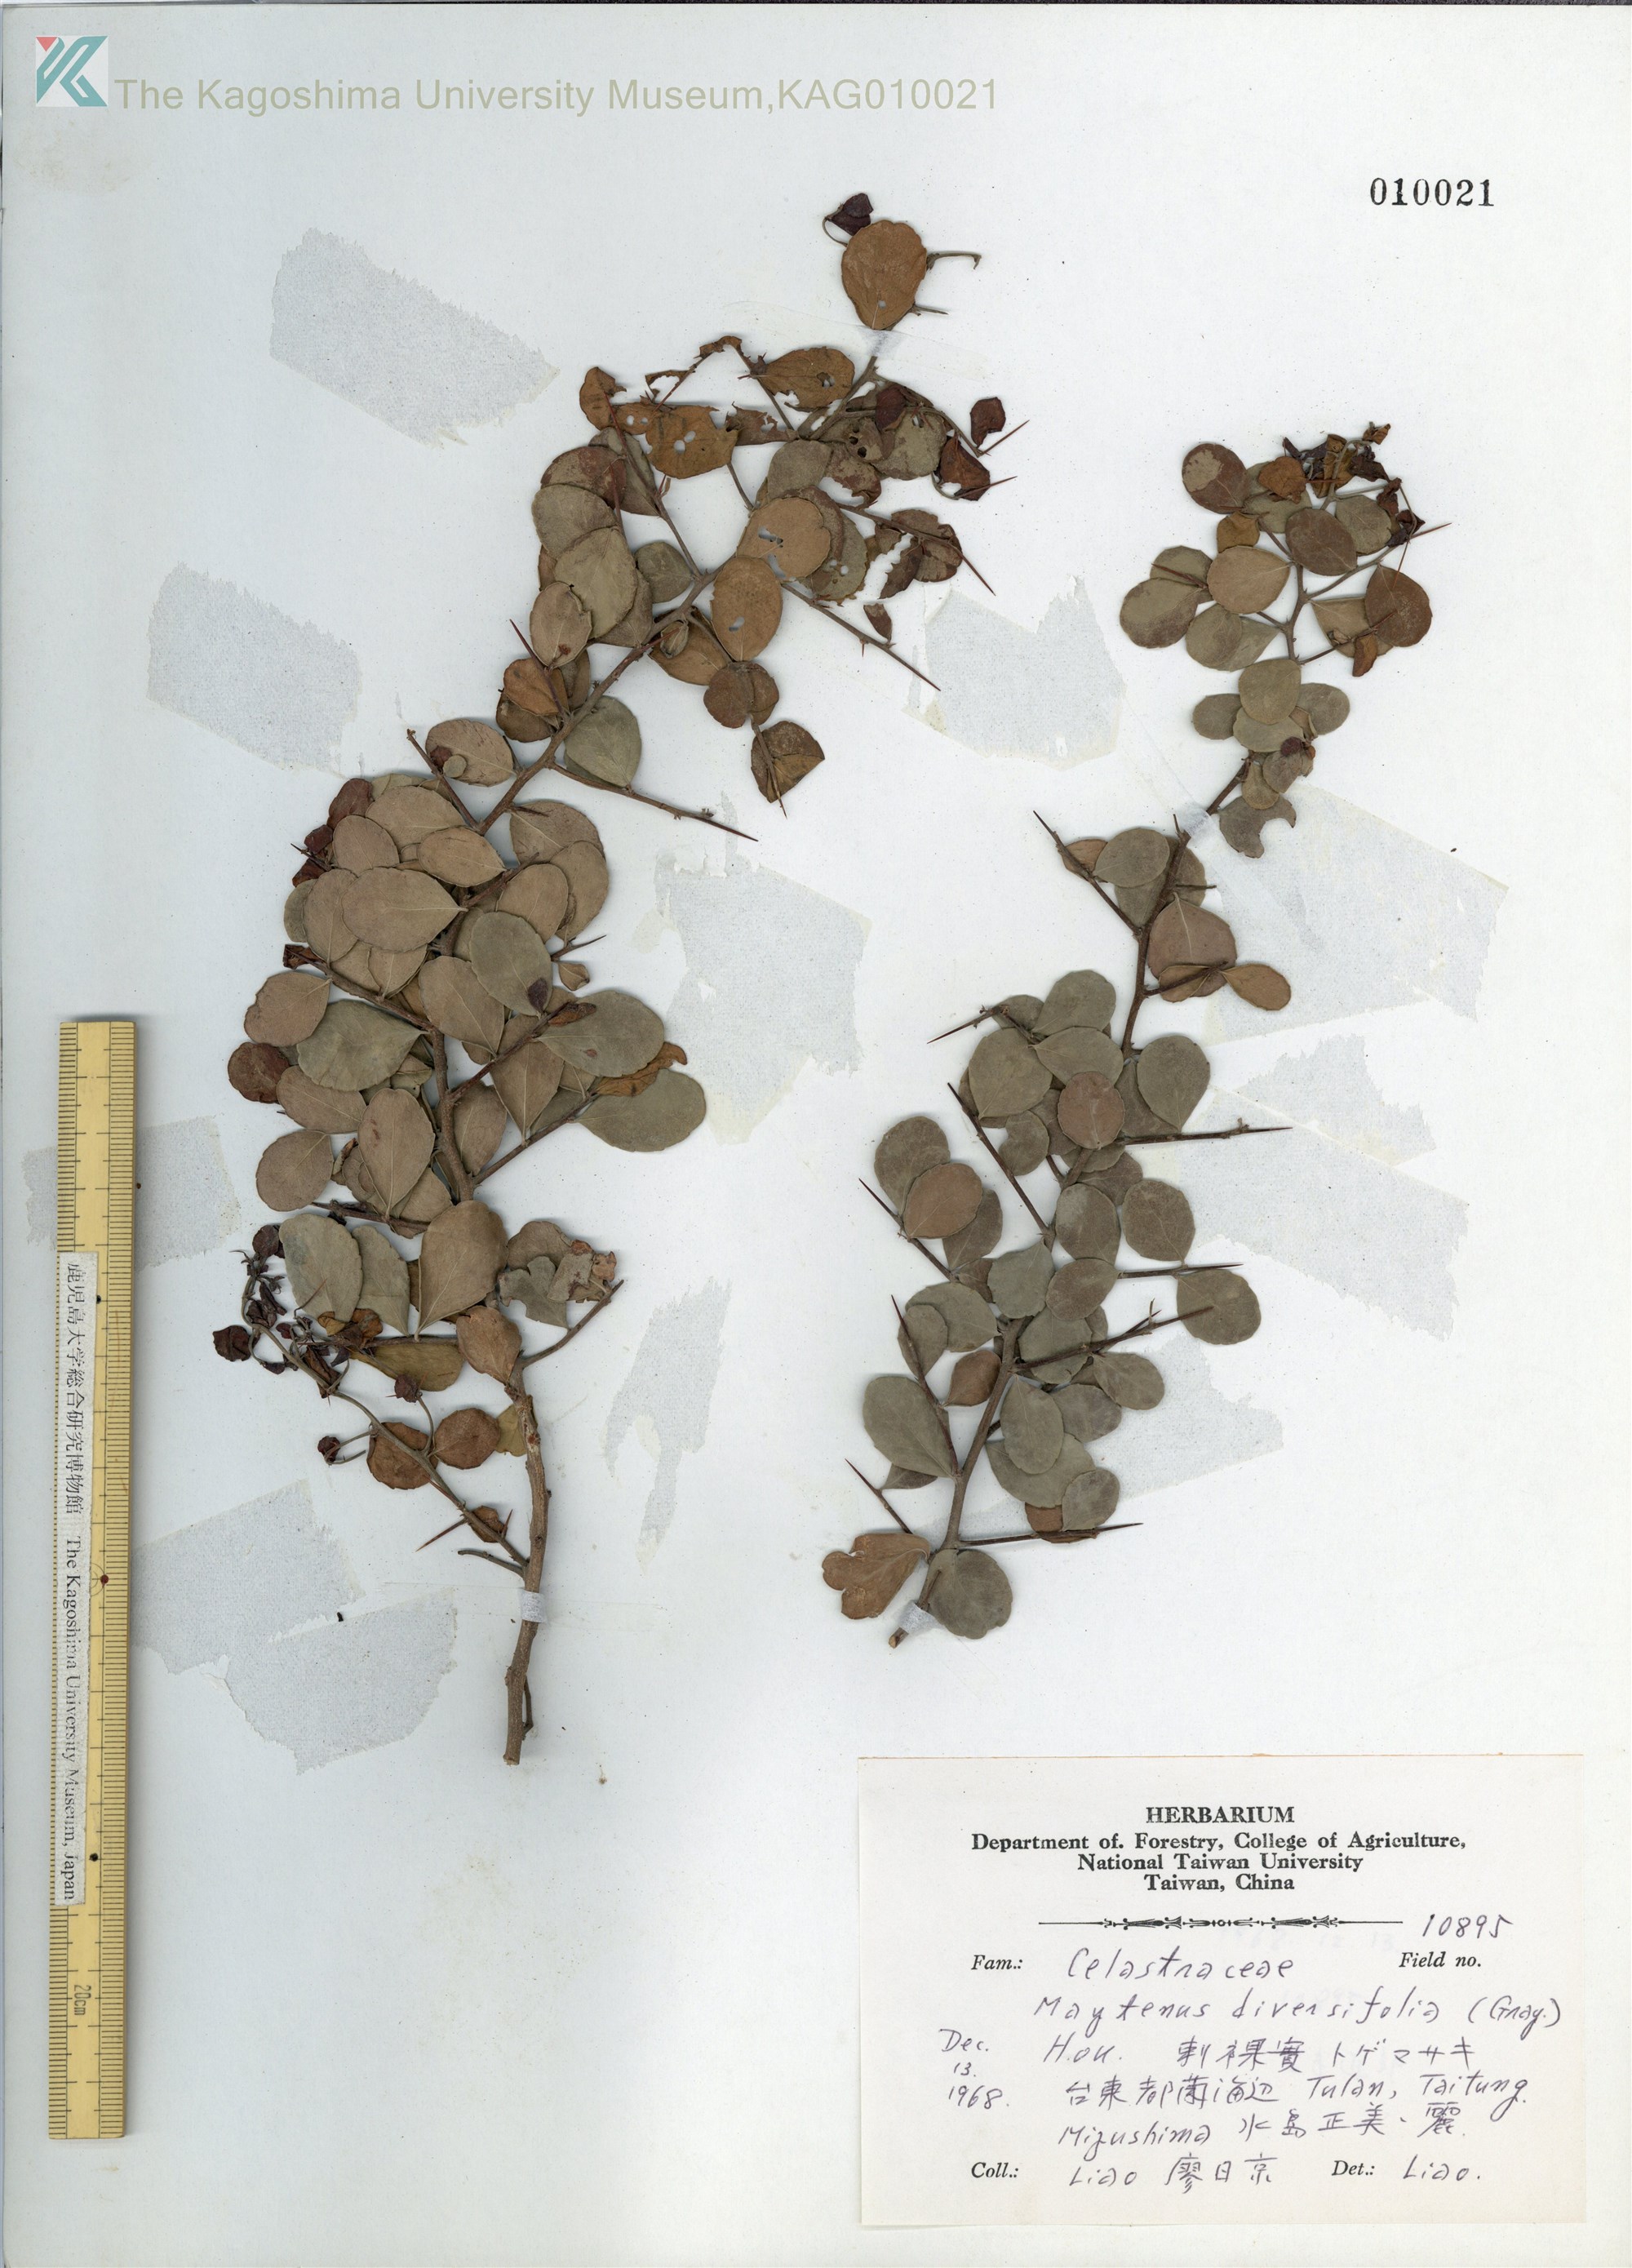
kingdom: Plantae
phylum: Tracheophyta
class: Magnoliopsida
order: Celastrales
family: Celastraceae
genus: Gymnosporia
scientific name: Gymnosporia diversifolia
